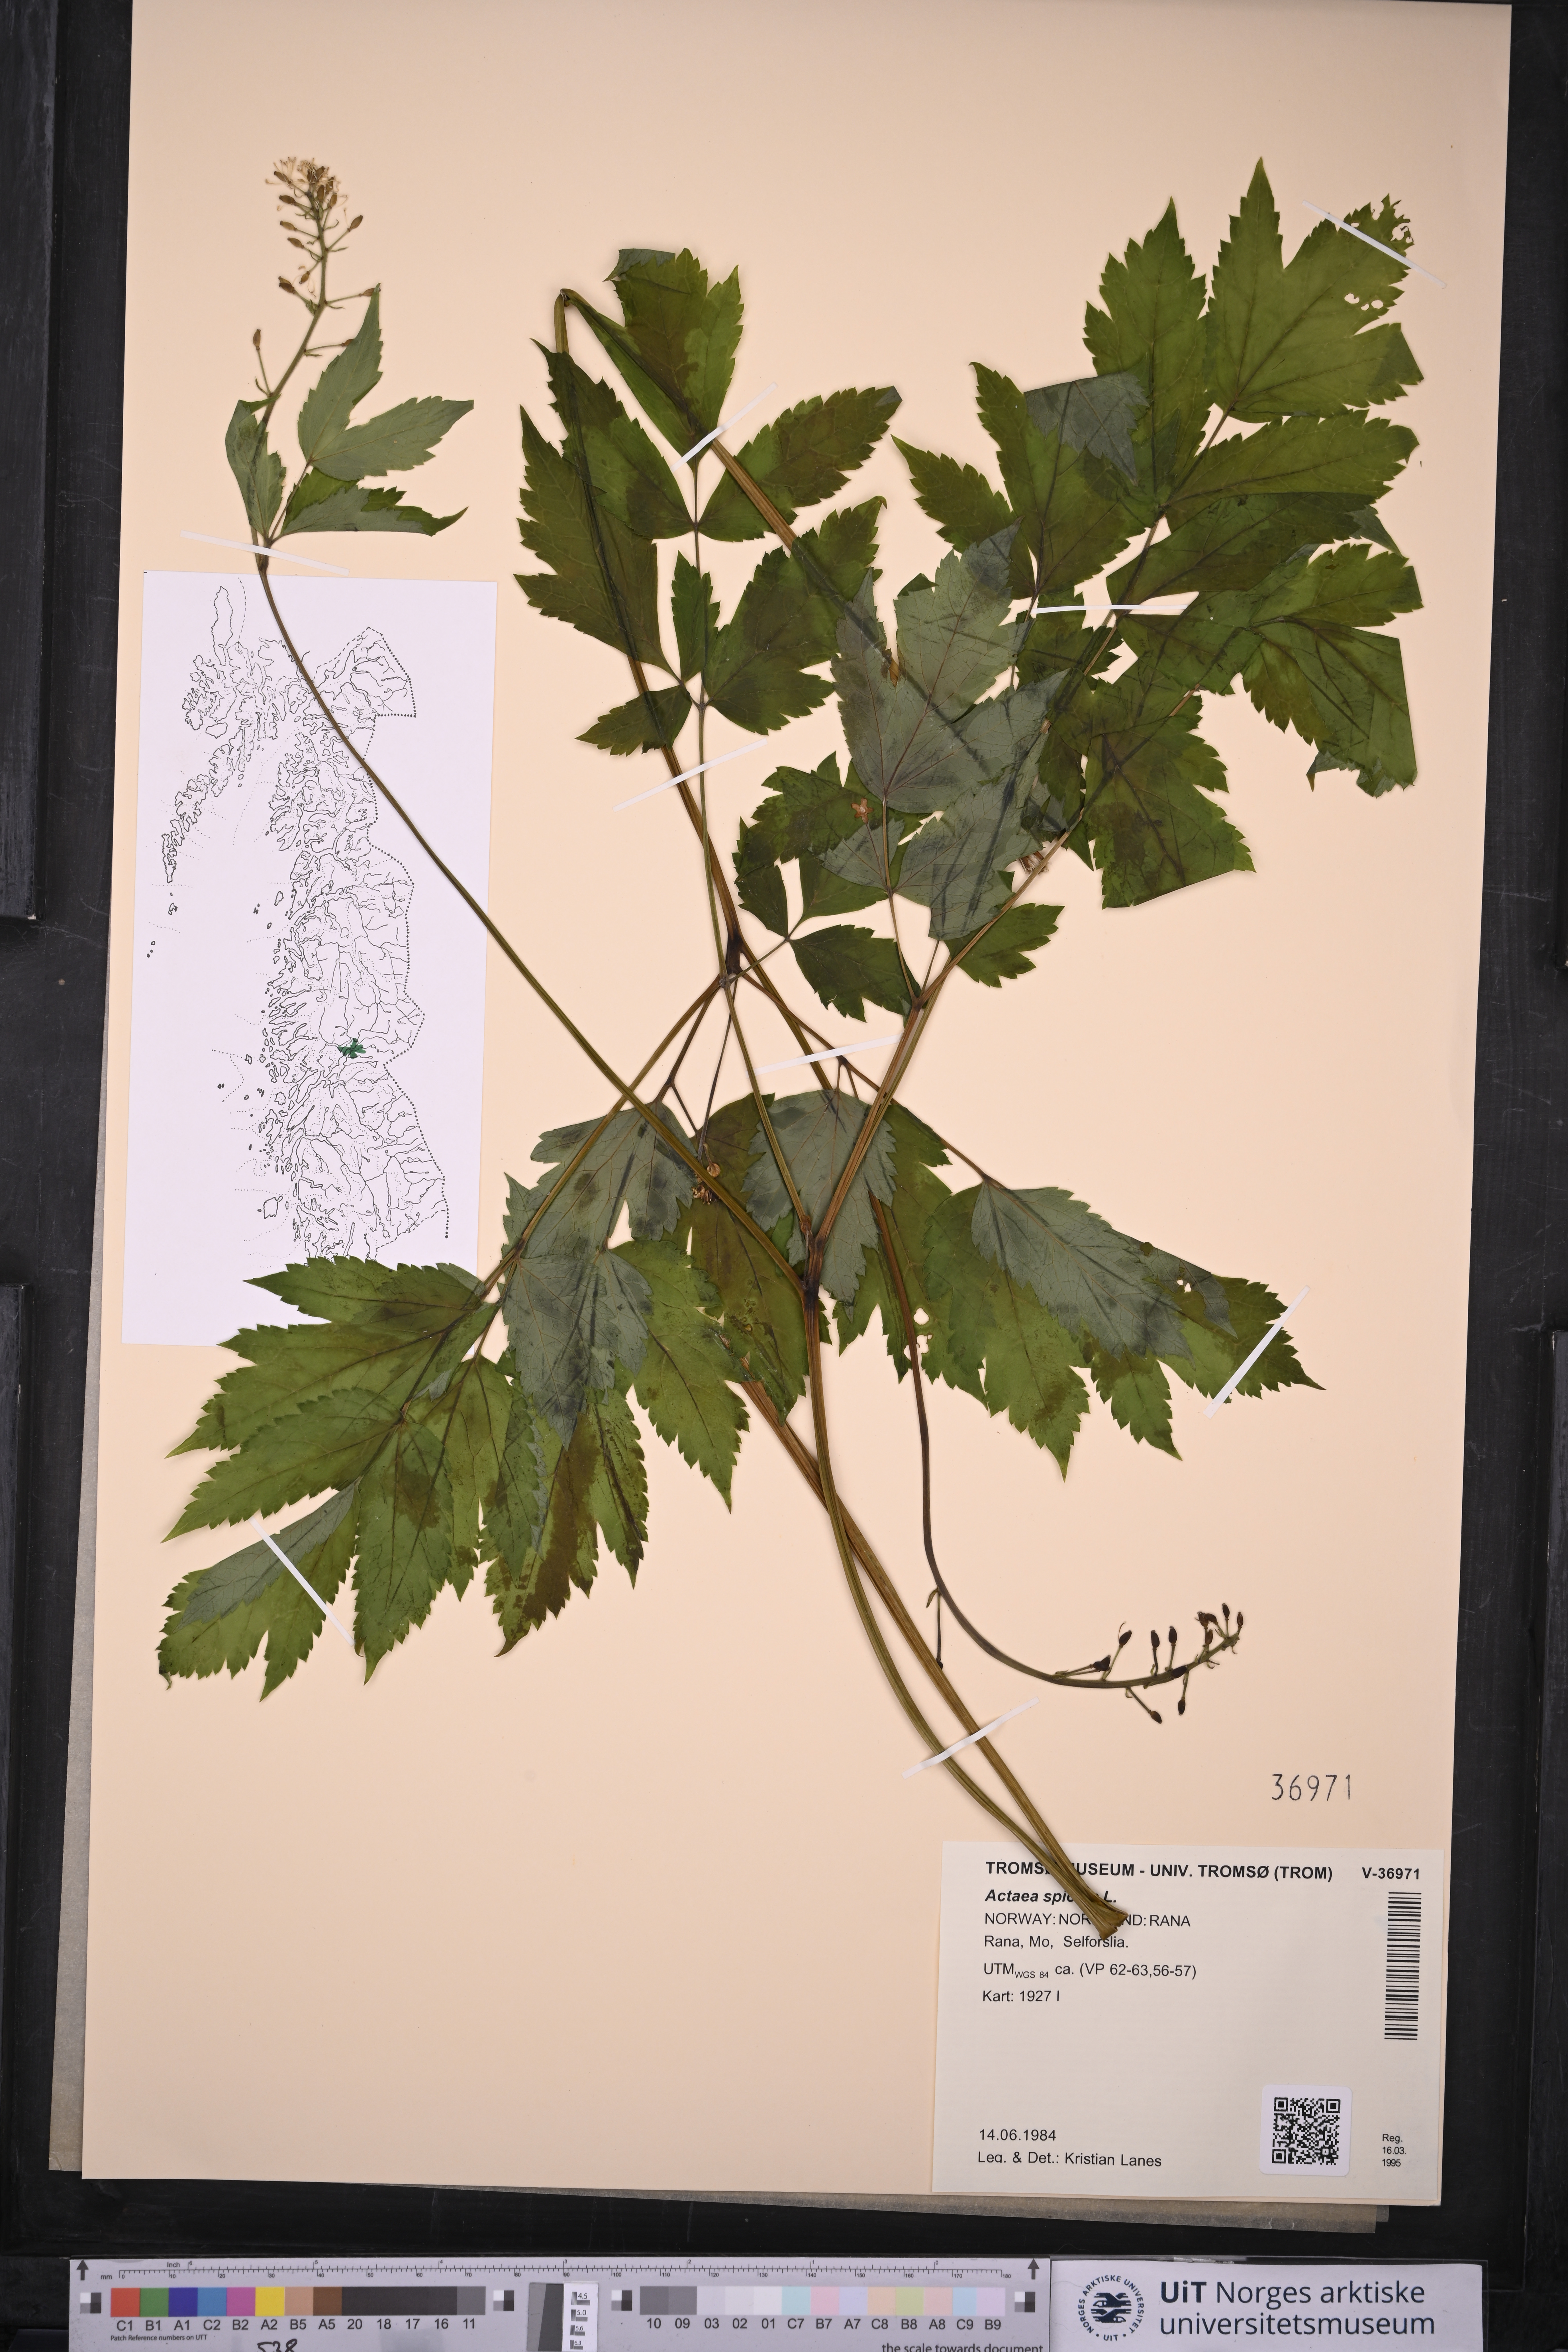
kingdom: Plantae
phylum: Tracheophyta
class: Magnoliopsida
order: Ranunculales
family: Ranunculaceae
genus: Actaea
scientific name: Actaea spicata
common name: Baneberry
